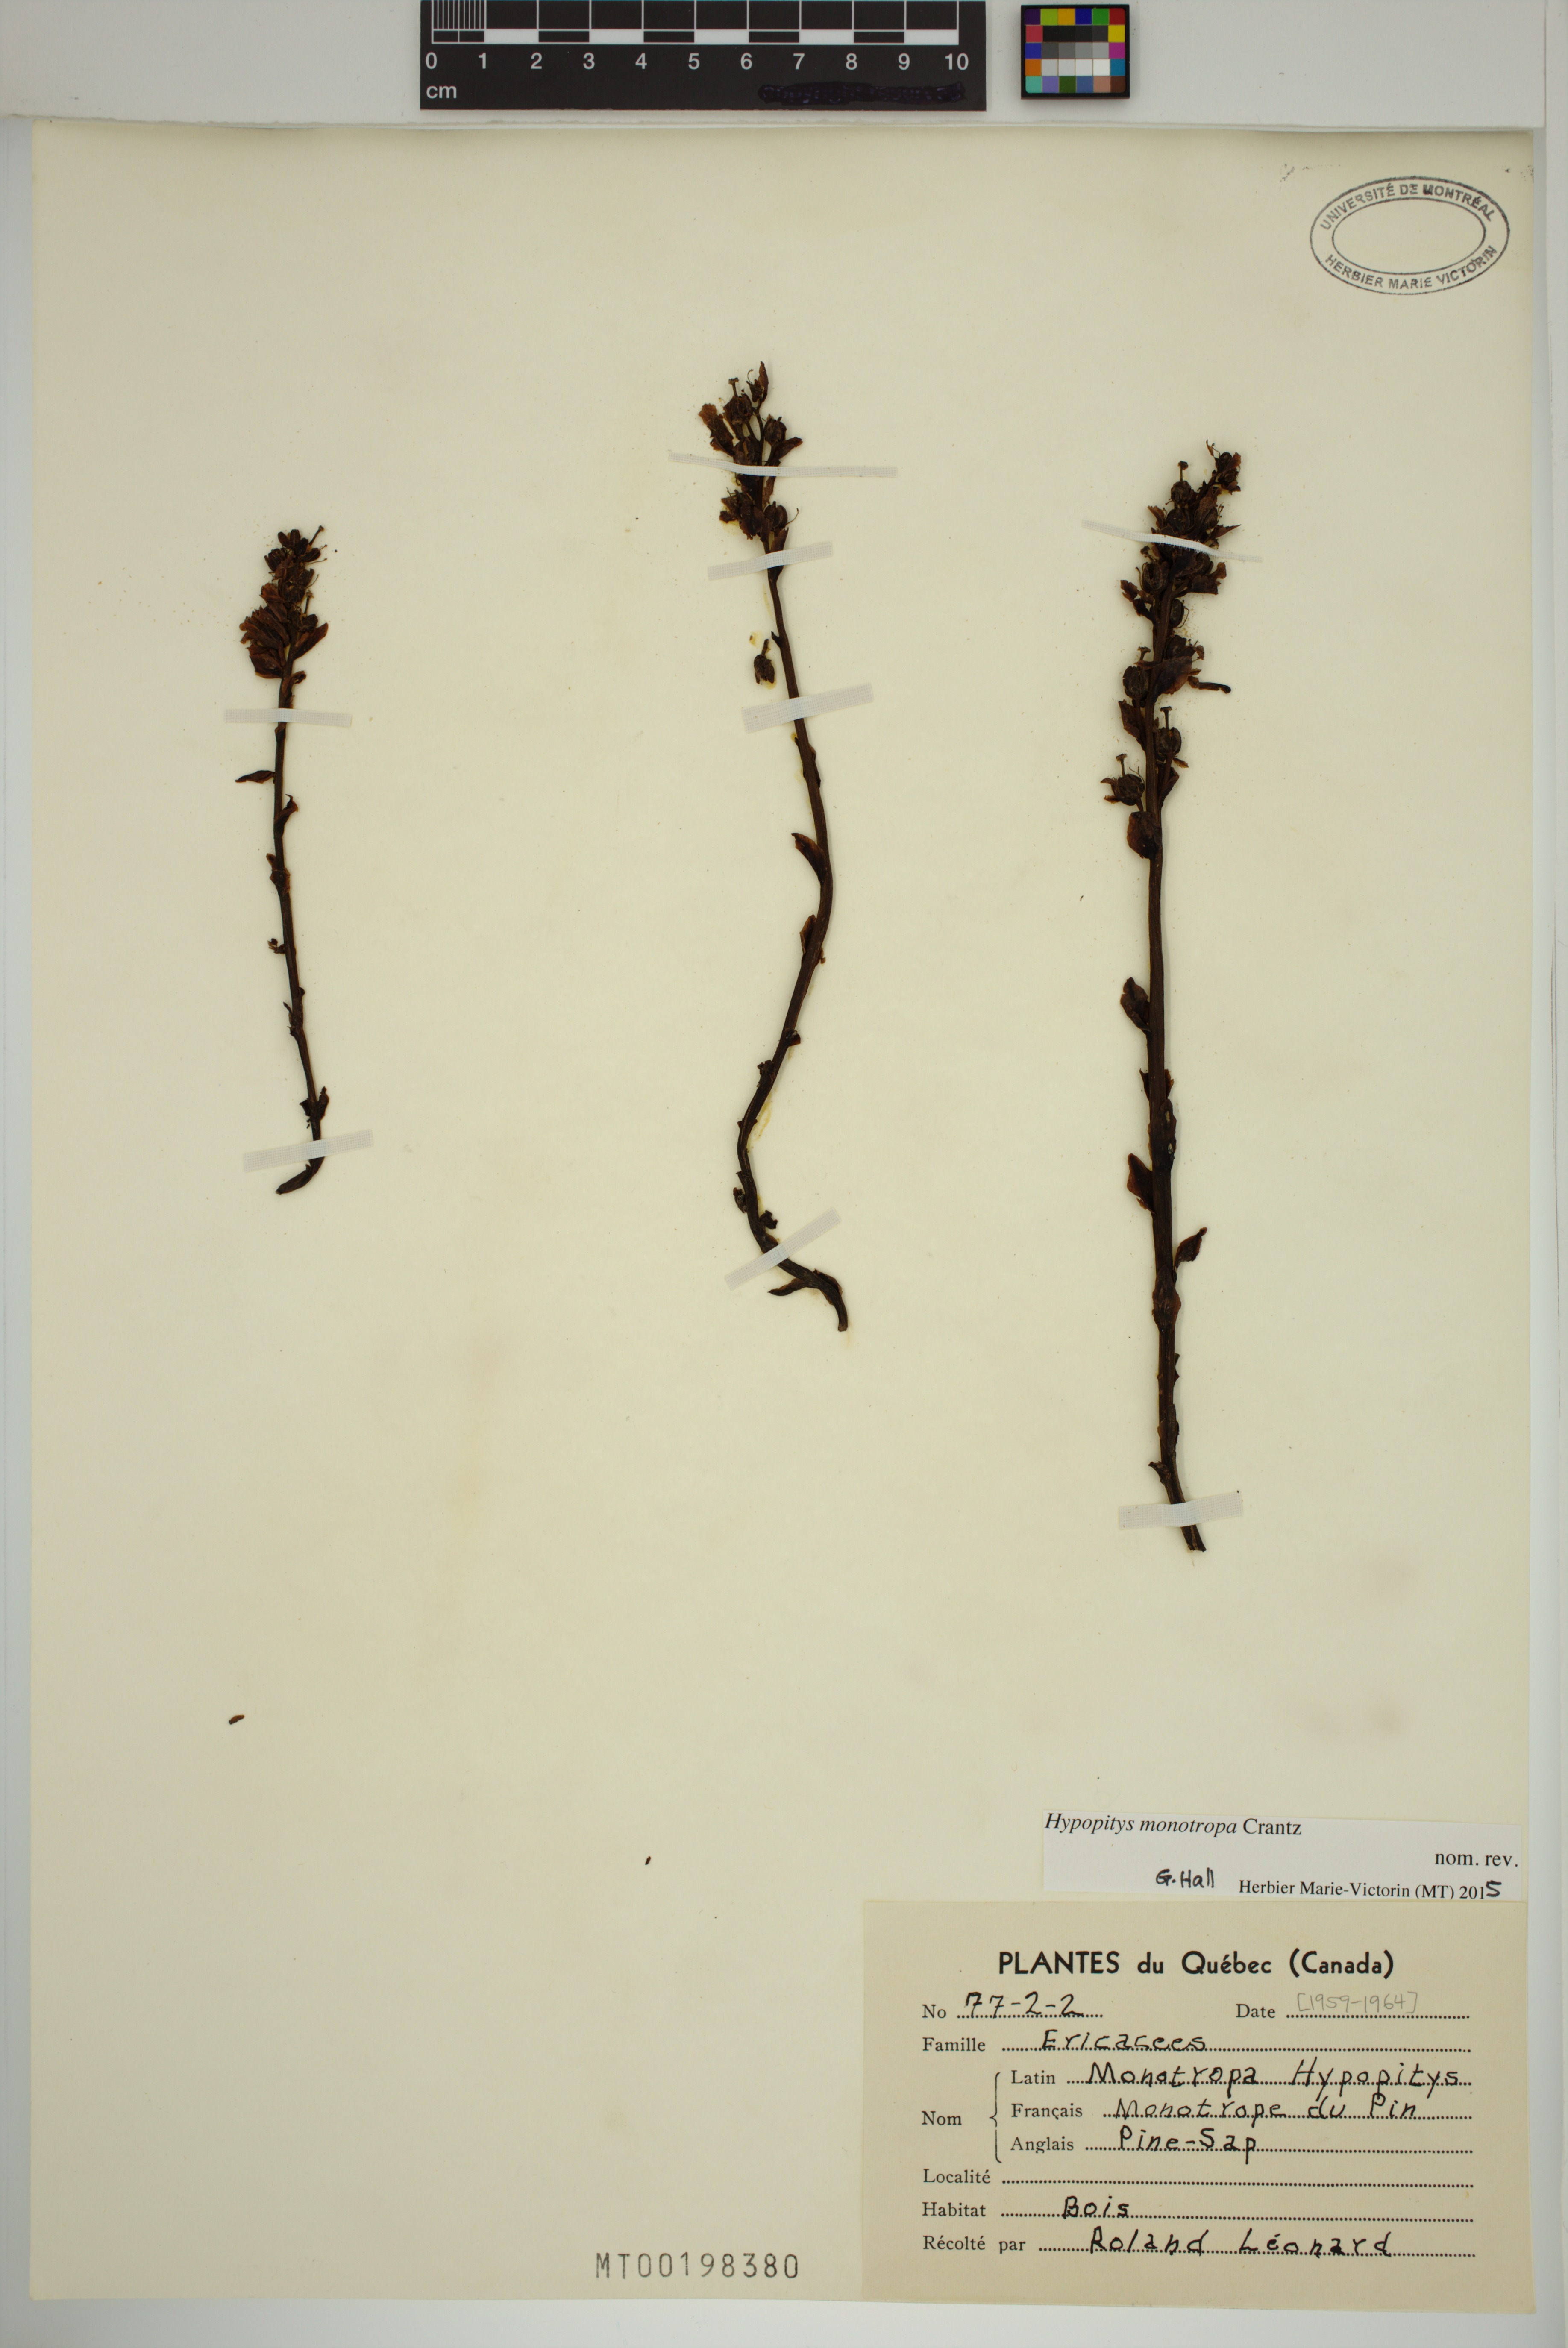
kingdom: Plantae
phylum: Tracheophyta
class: Magnoliopsida
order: Ericales
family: Ericaceae
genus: Hypopitys
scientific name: Hypopitys monotropa
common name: Yellow bird's-nest
